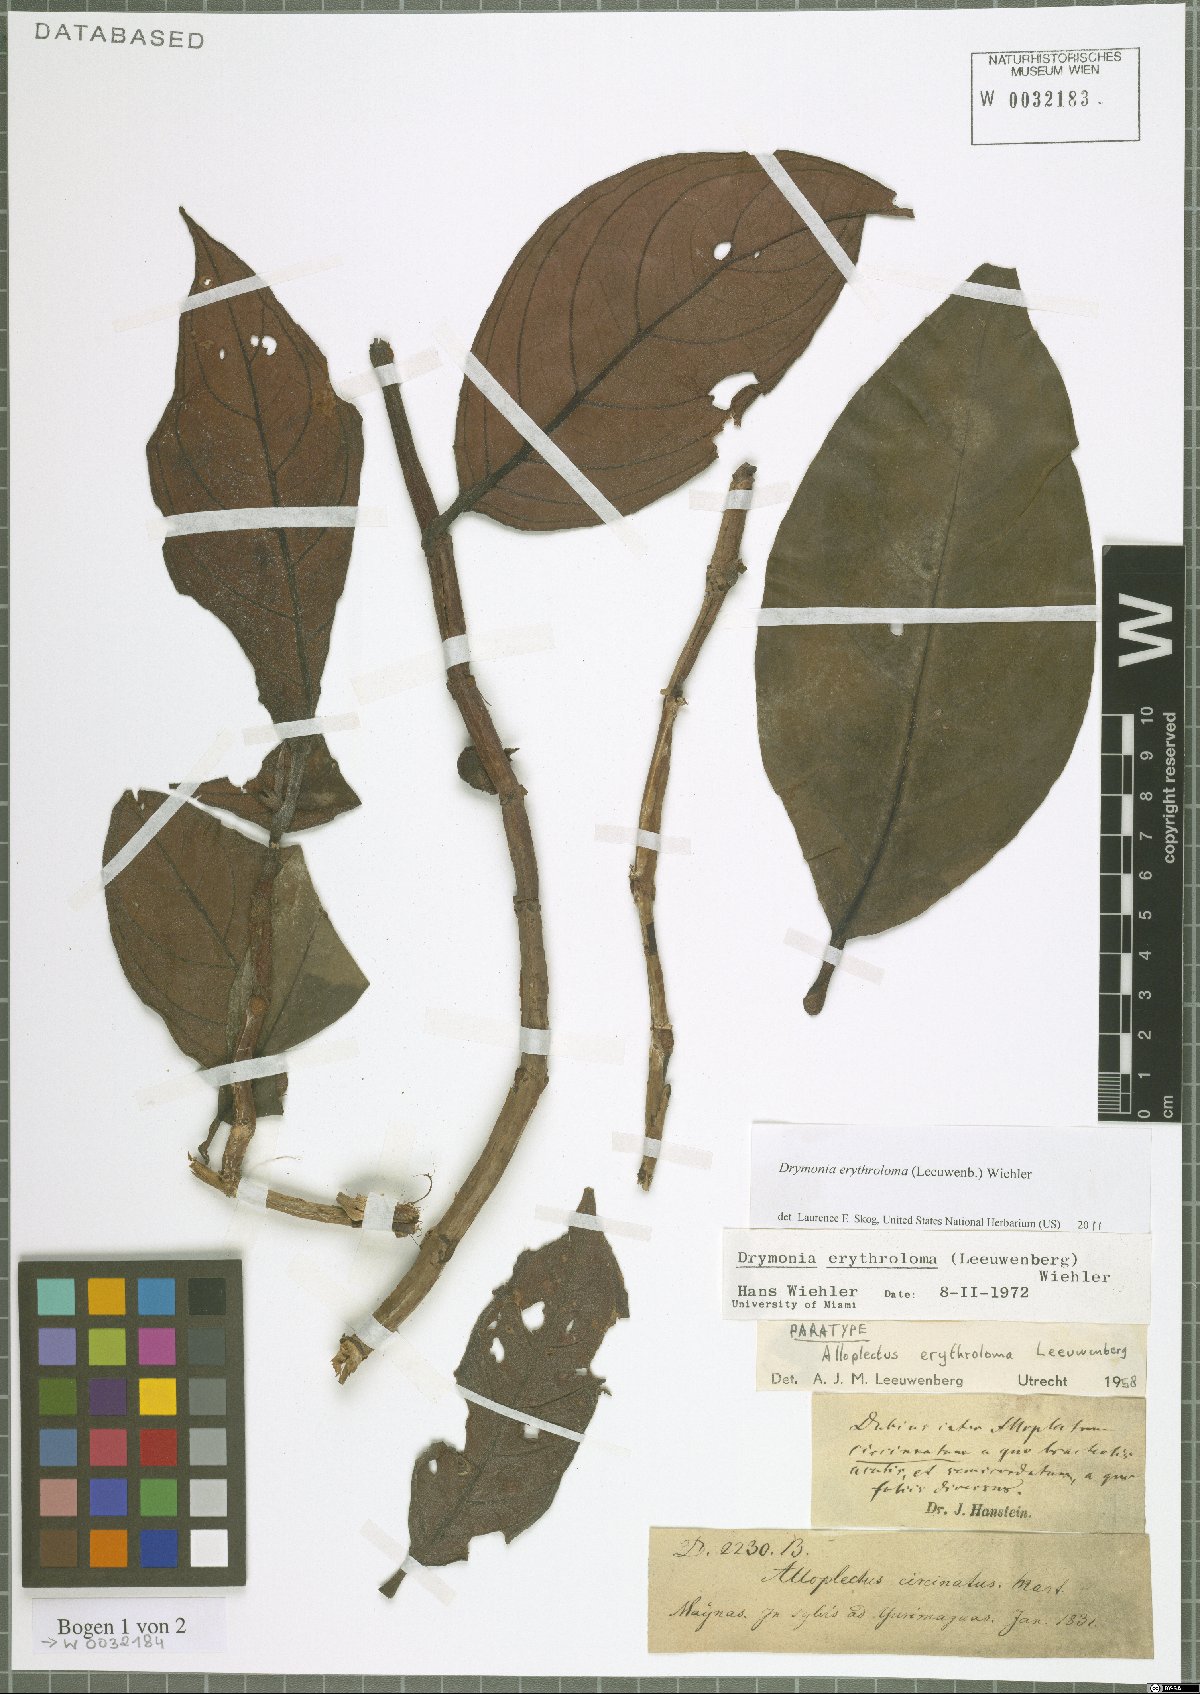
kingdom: Plantae
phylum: Tracheophyta
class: Magnoliopsida
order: Lamiales
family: Gesneriaceae
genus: Drymonia
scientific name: Drymonia erythroloma
